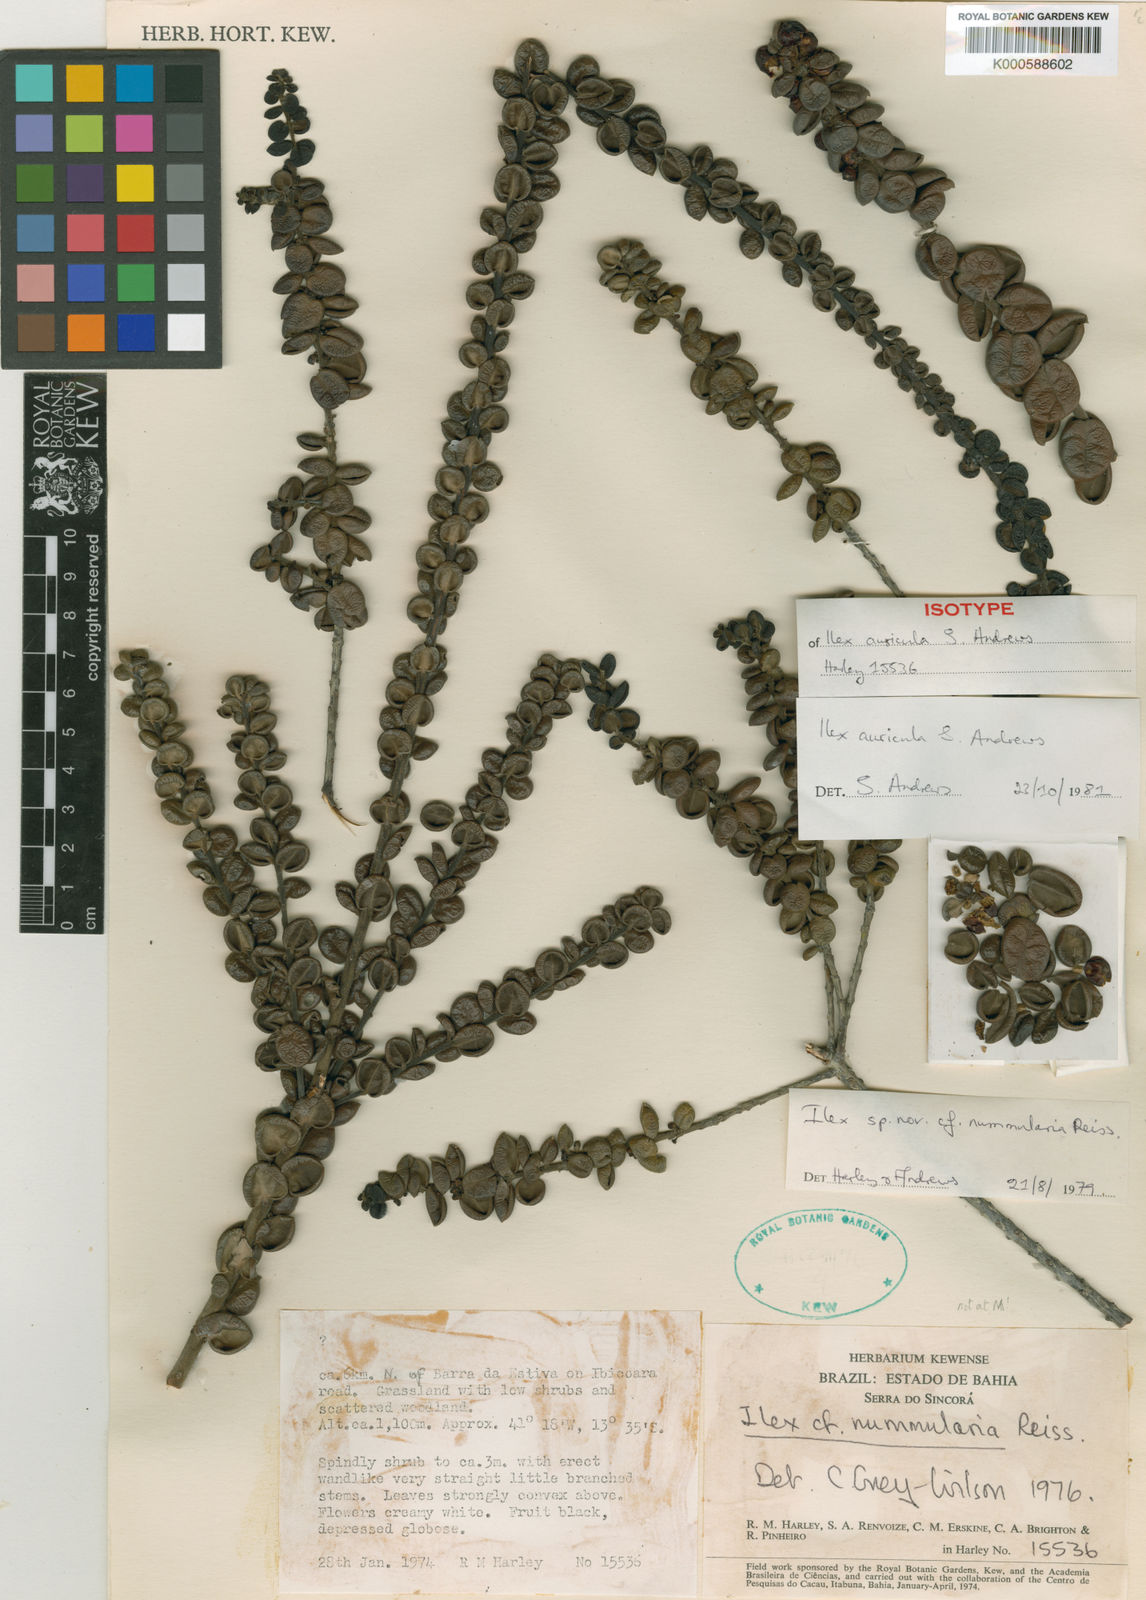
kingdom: Plantae
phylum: Tracheophyta
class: Magnoliopsida
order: Aquifoliales
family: Aquifoliaceae
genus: Ilex
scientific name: Ilex auricula
